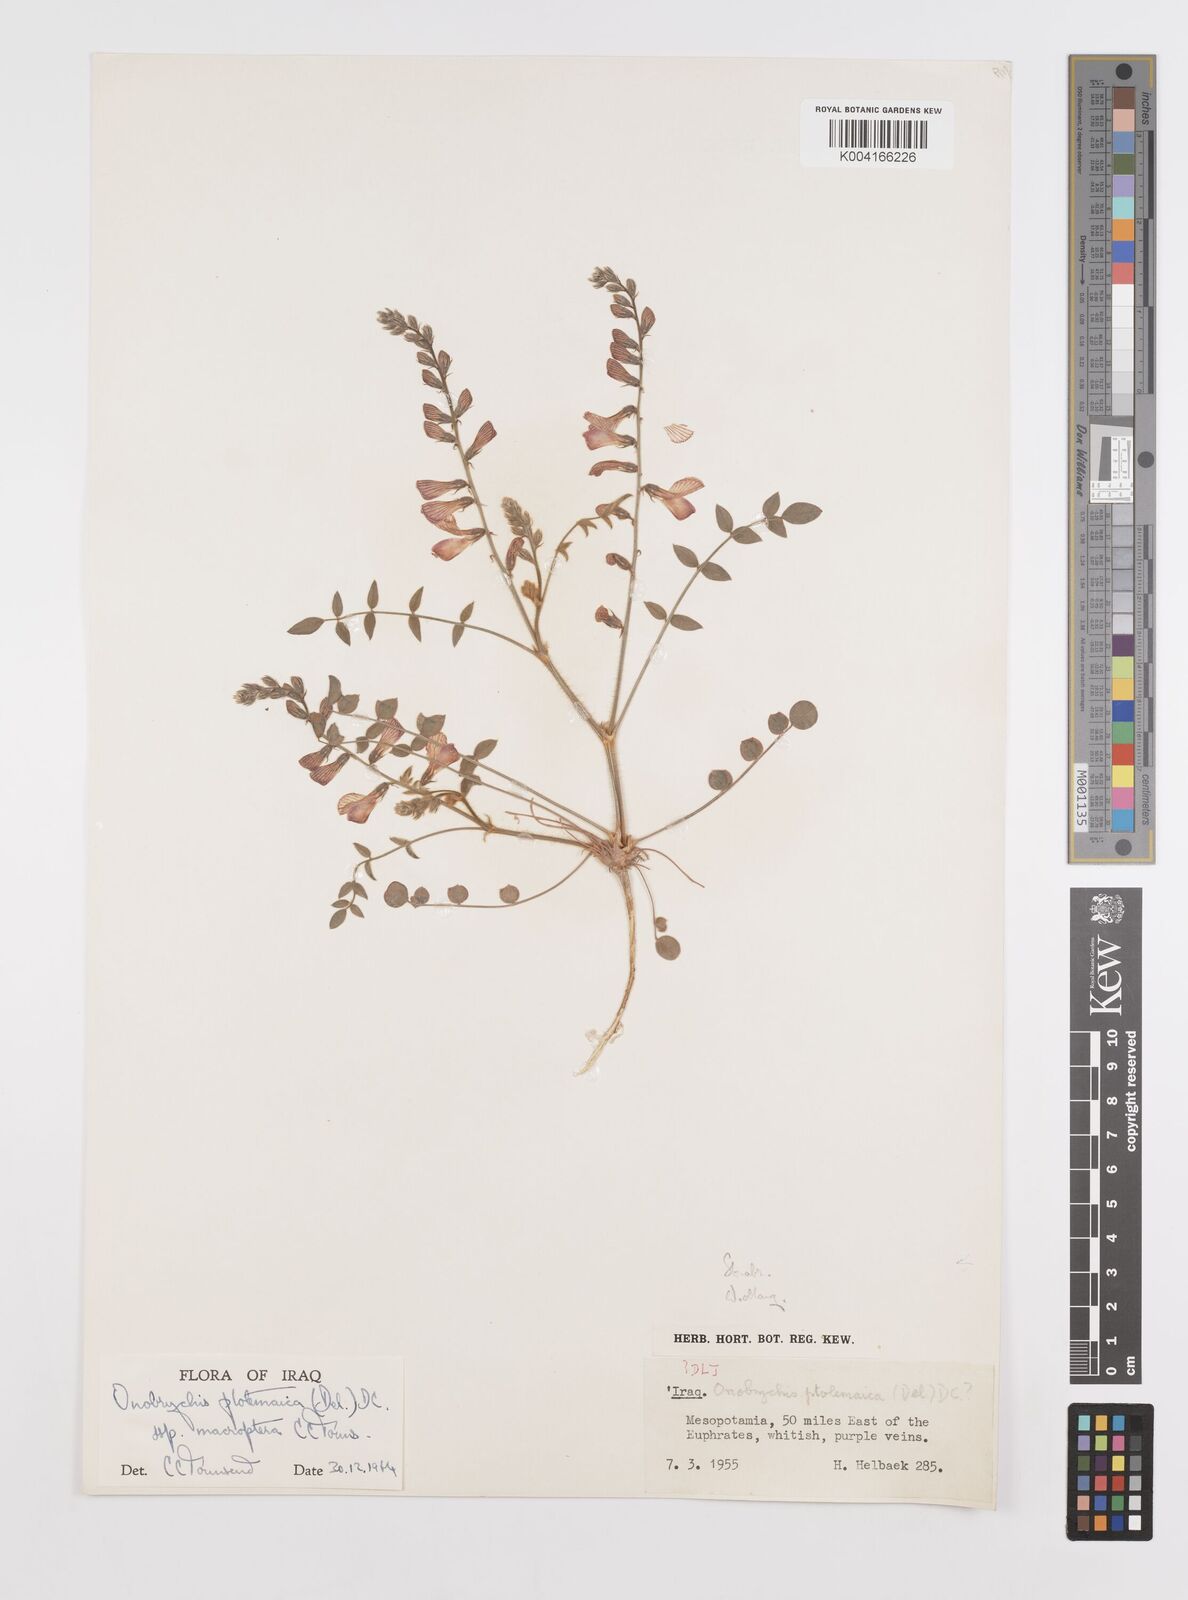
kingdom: Plantae
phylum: Tracheophyta
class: Magnoliopsida
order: Fabales
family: Fabaceae
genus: Onobrychis
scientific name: Onobrychis ptolemaica
